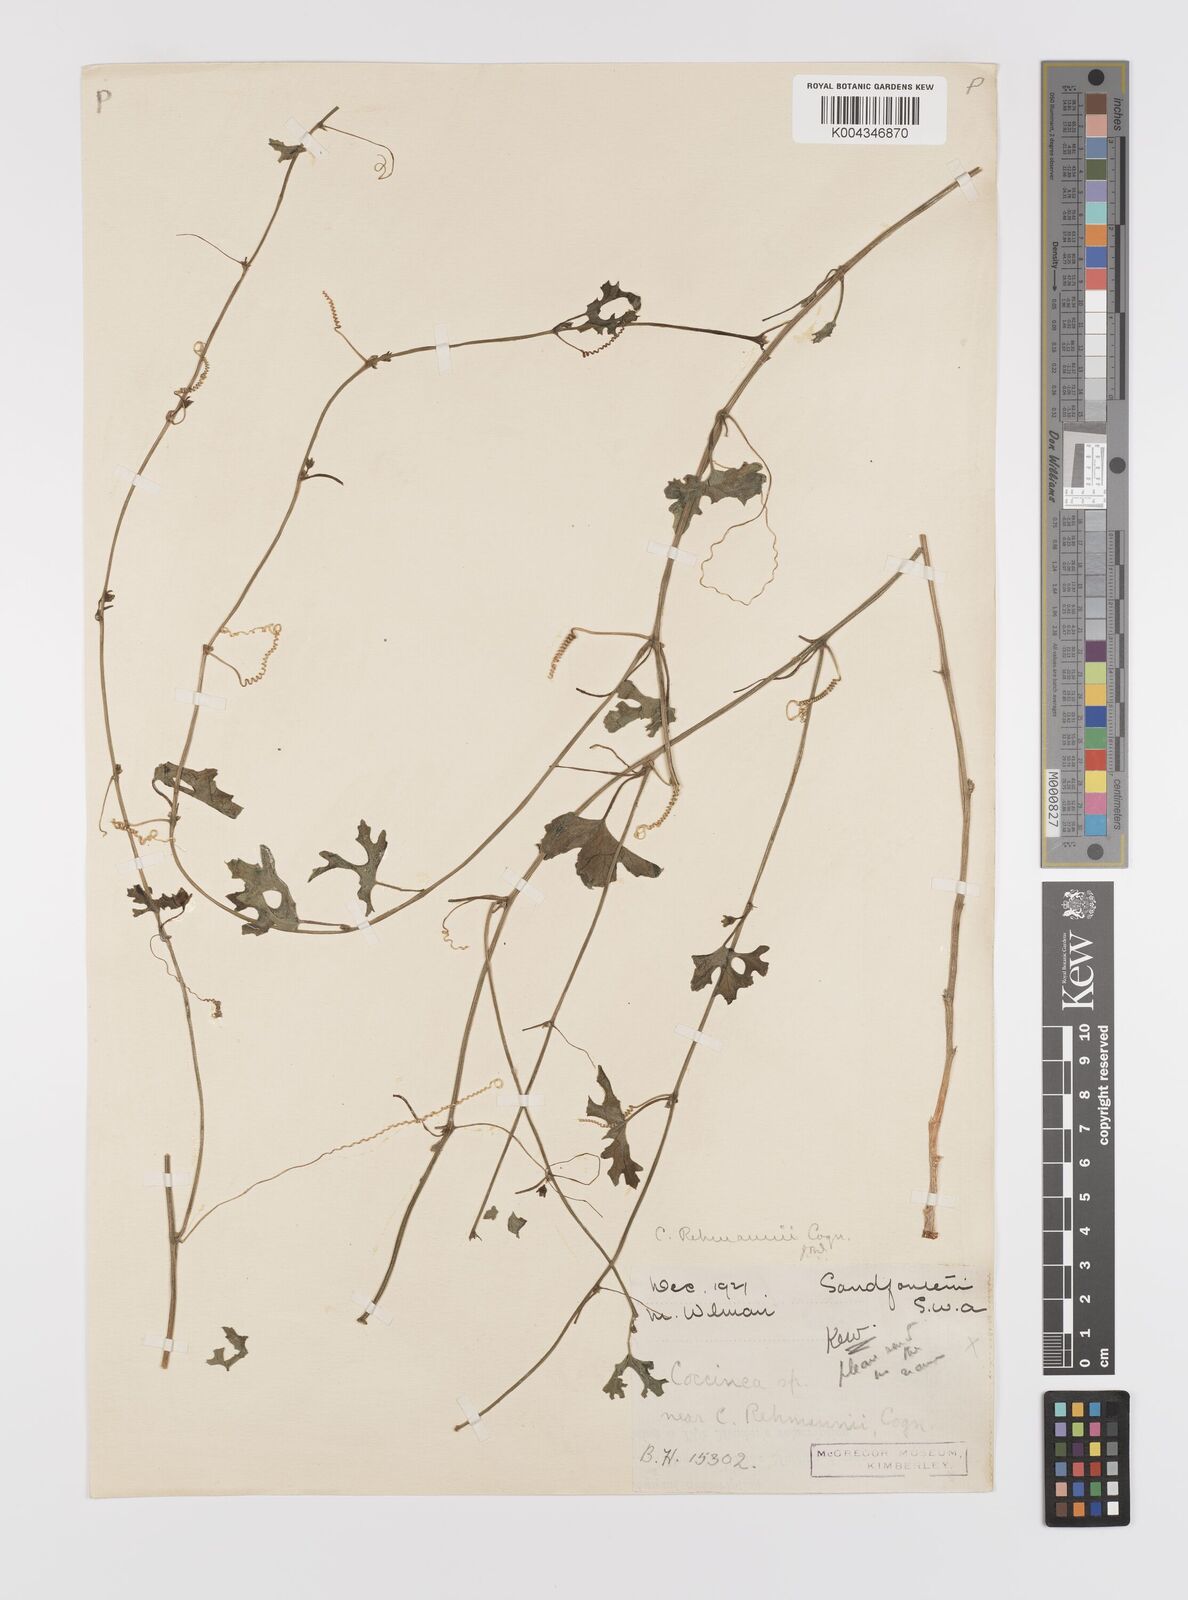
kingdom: Plantae
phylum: Tracheophyta
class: Magnoliopsida
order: Cucurbitales
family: Cucurbitaceae
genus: Coccinia
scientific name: Coccinia rehmannii
